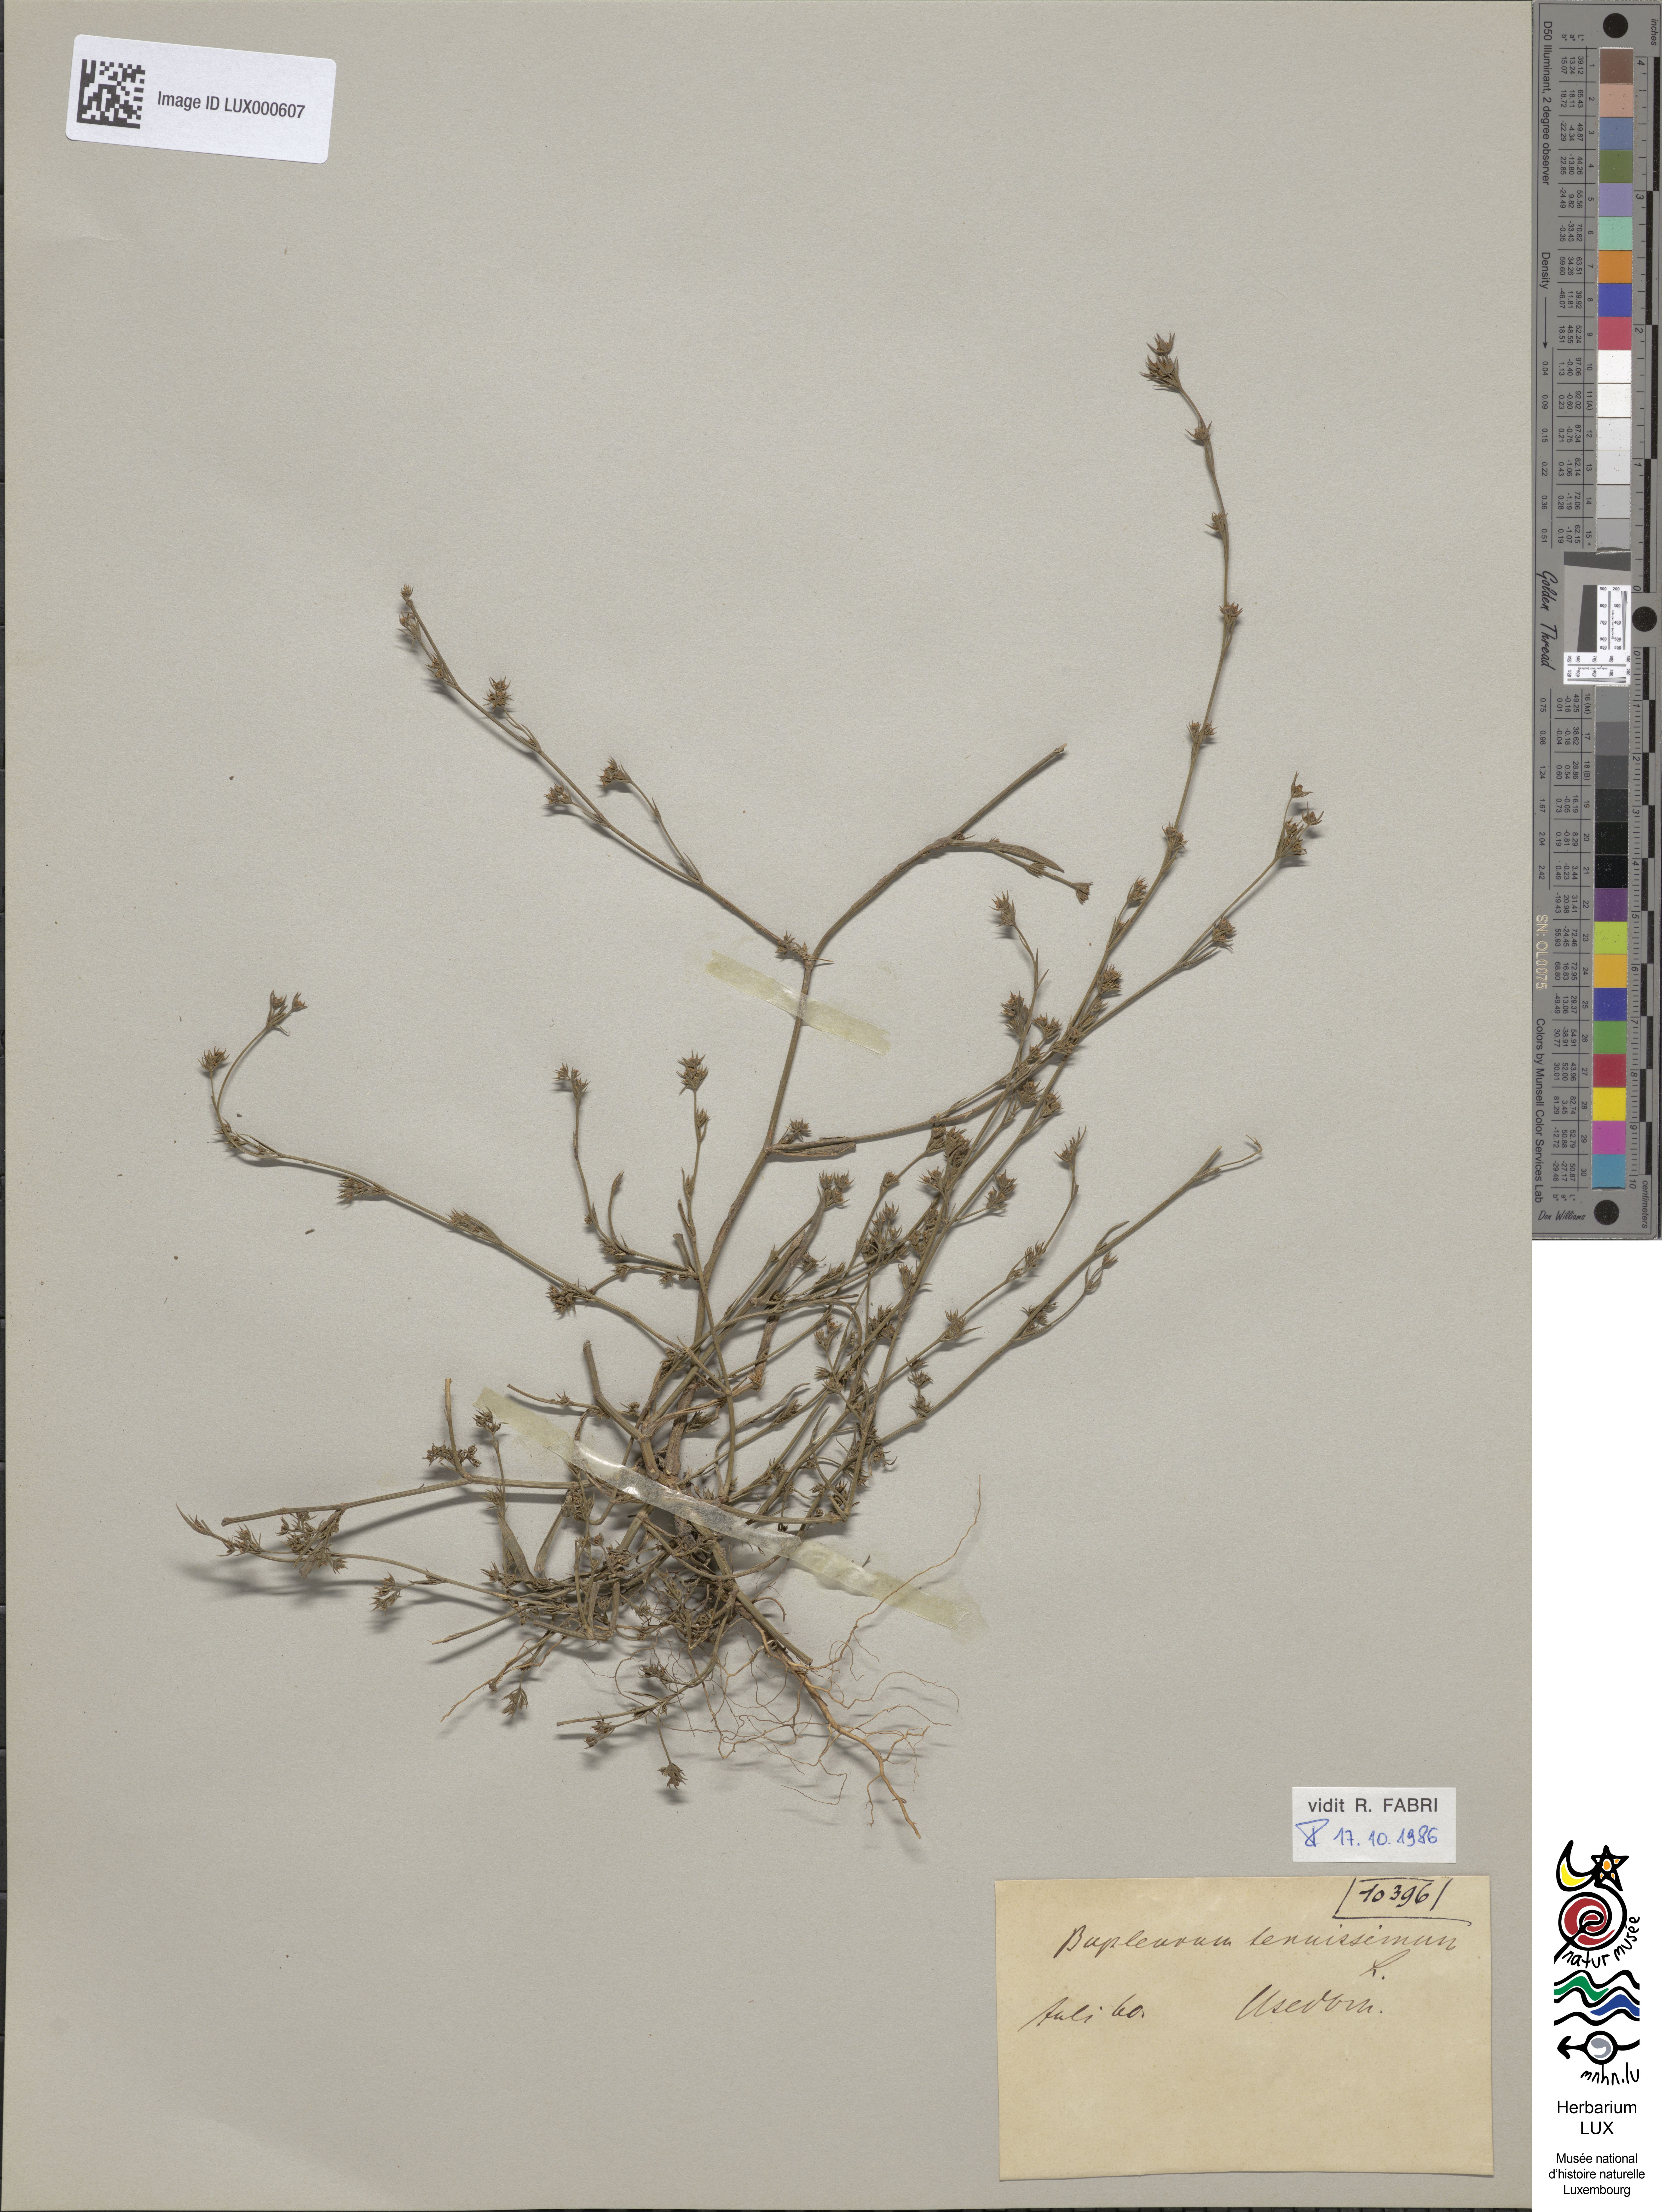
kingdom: Plantae
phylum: Tracheophyta
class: Magnoliopsida
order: Apiales
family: Apiaceae
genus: Bupleurum
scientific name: Bupleurum tenuissimum
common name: Slender hare's-ear
